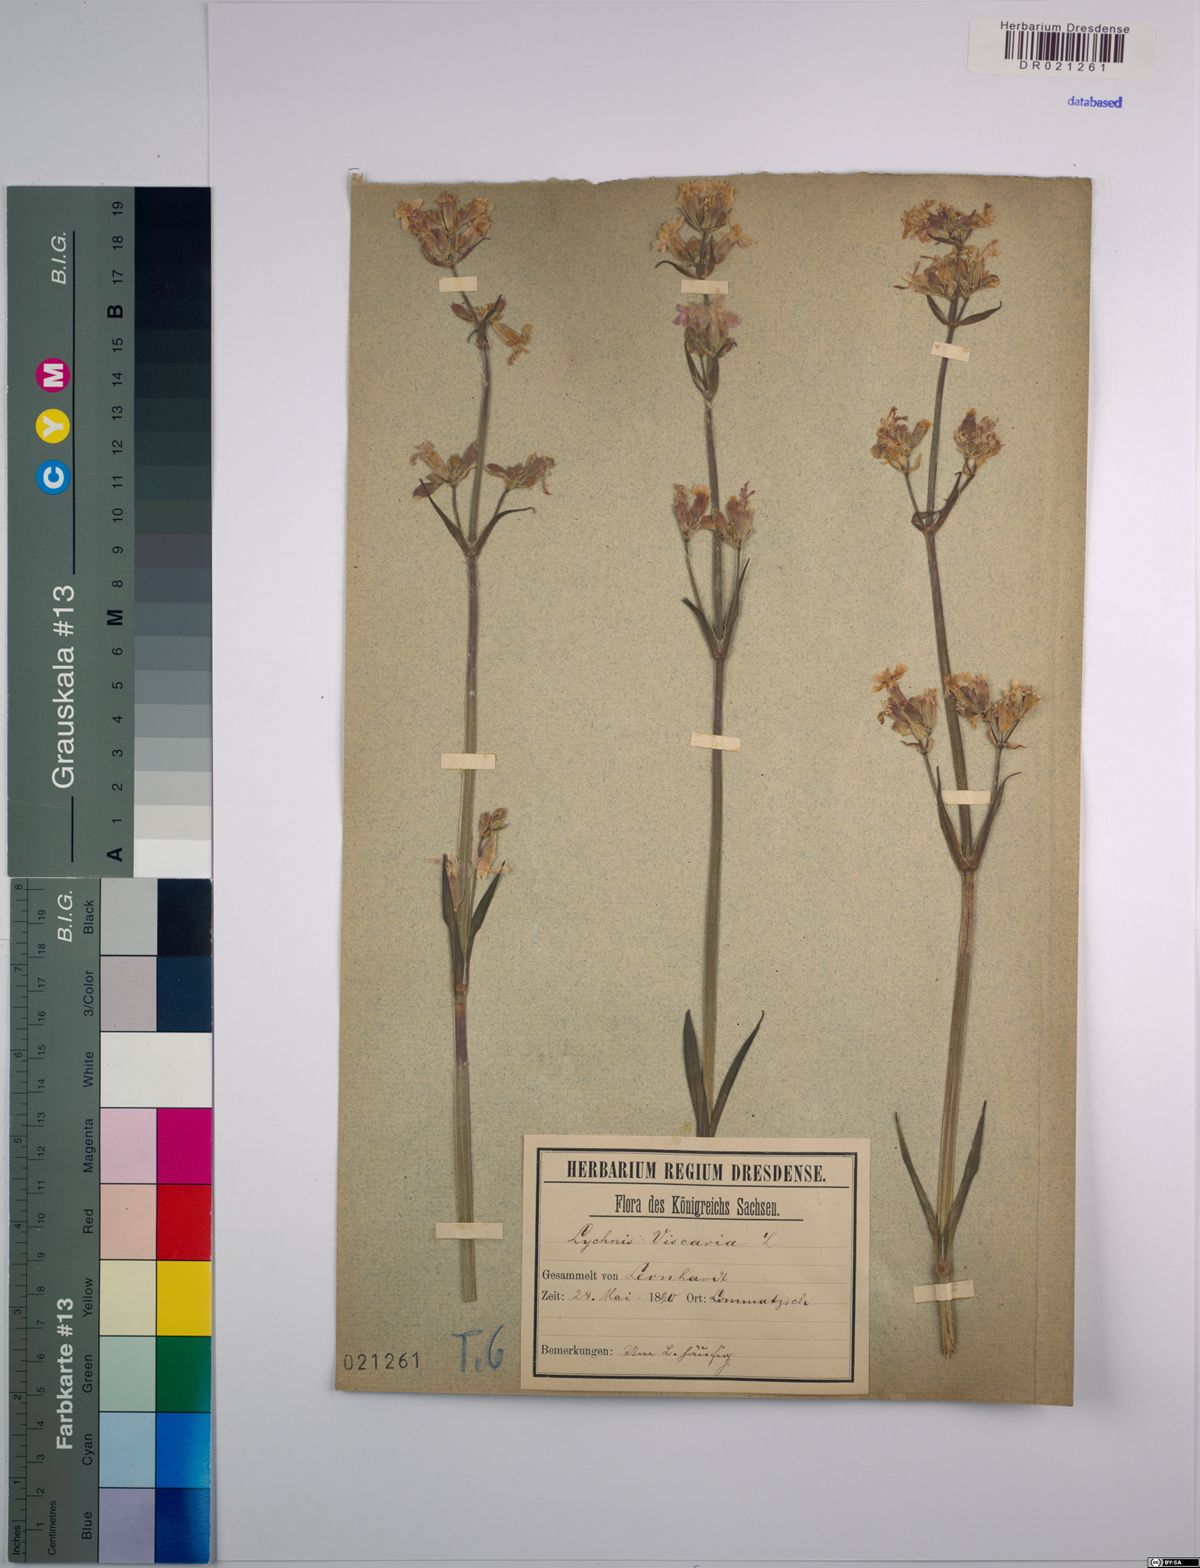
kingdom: Plantae
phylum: Tracheophyta
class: Magnoliopsida
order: Caryophyllales
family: Caryophyllaceae
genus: Viscaria
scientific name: Viscaria vulgaris
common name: Clammy campion
